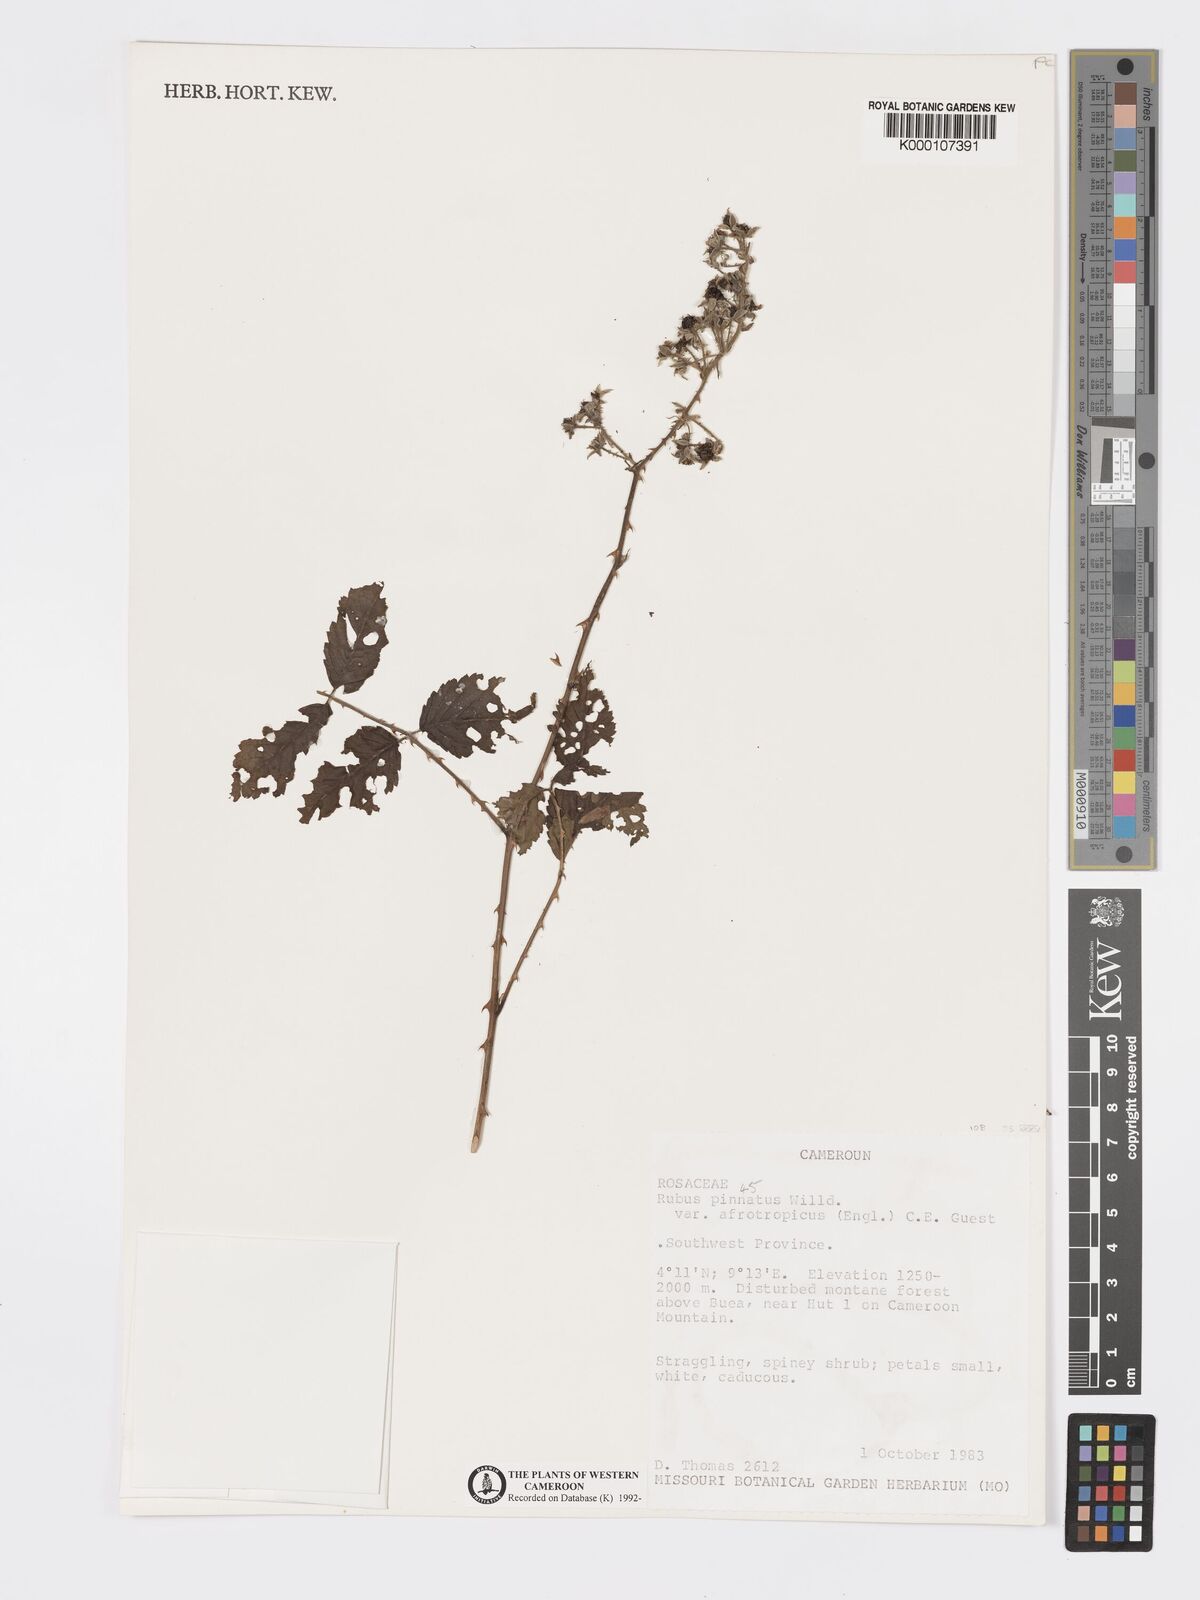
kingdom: Plantae
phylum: Tracheophyta
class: Magnoliopsida
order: Rosales
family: Rosaceae
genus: Rubus
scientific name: Rubus pinnatus
